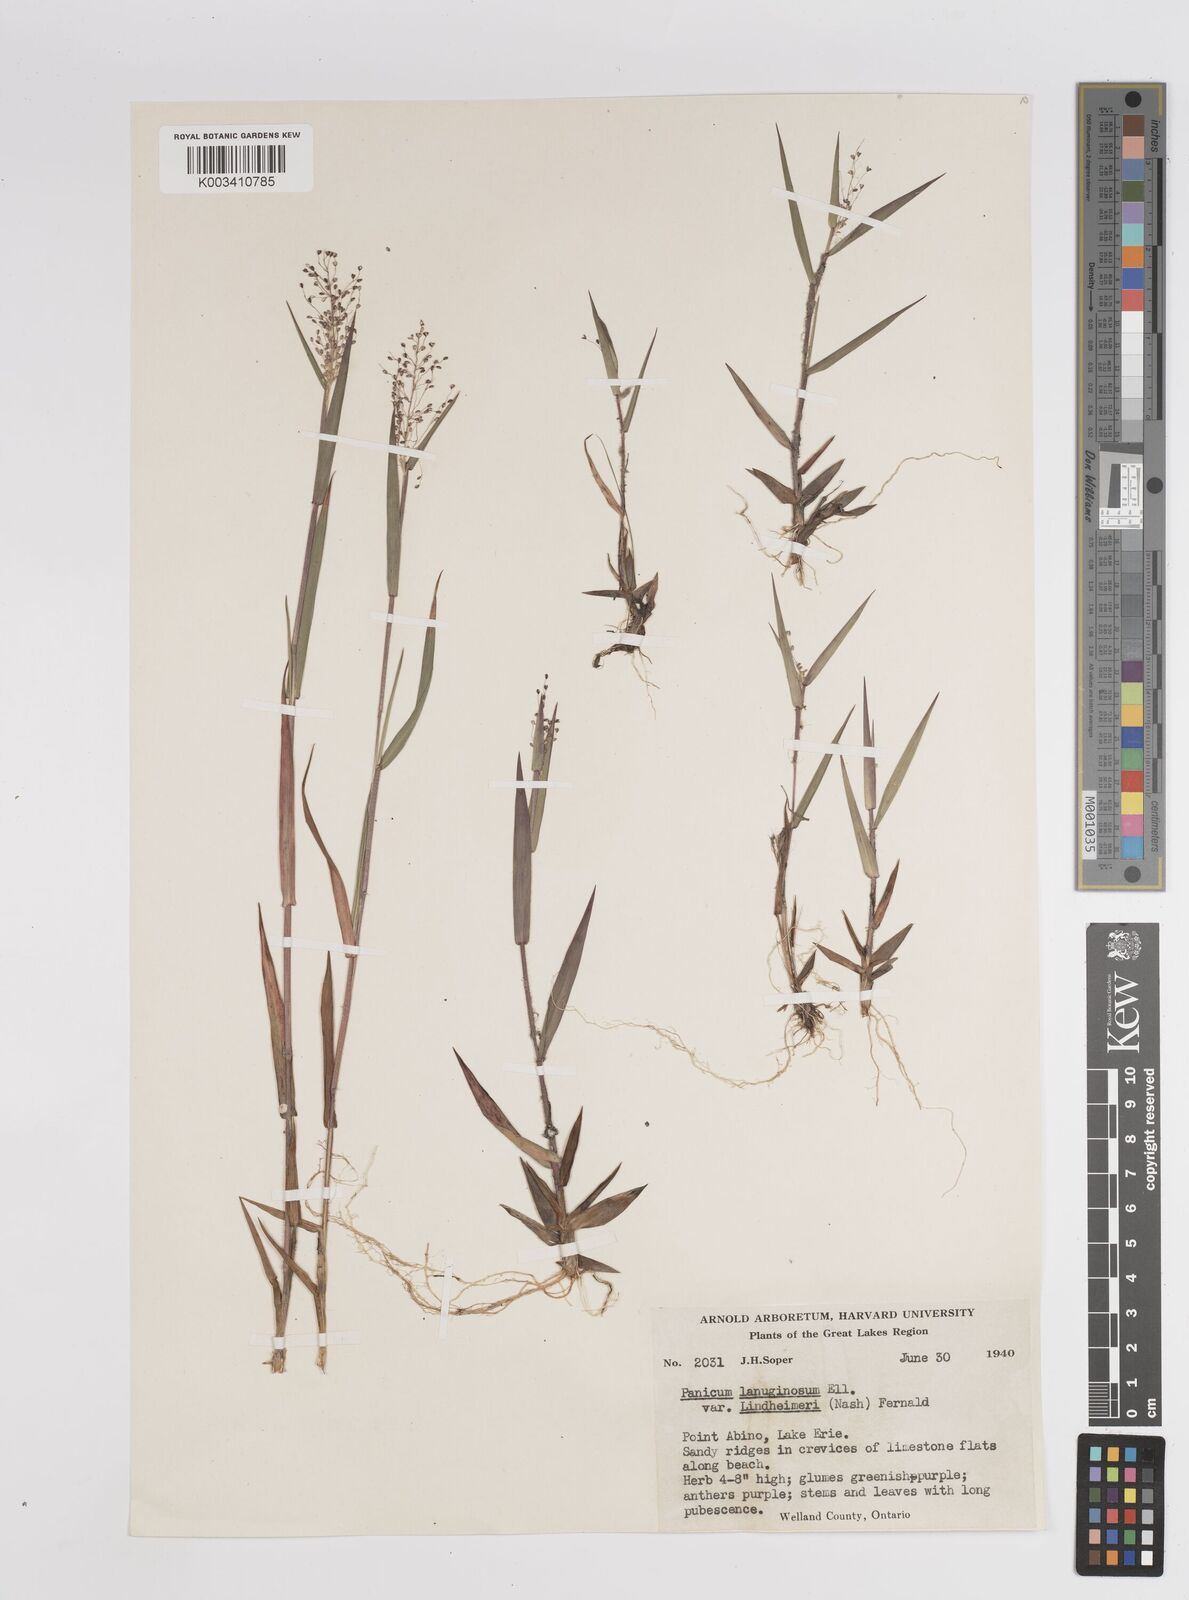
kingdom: Plantae
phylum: Tracheophyta
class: Liliopsida
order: Poales
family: Poaceae
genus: Dichanthelium
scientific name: Dichanthelium acuminatum
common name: Hairy panic grass
